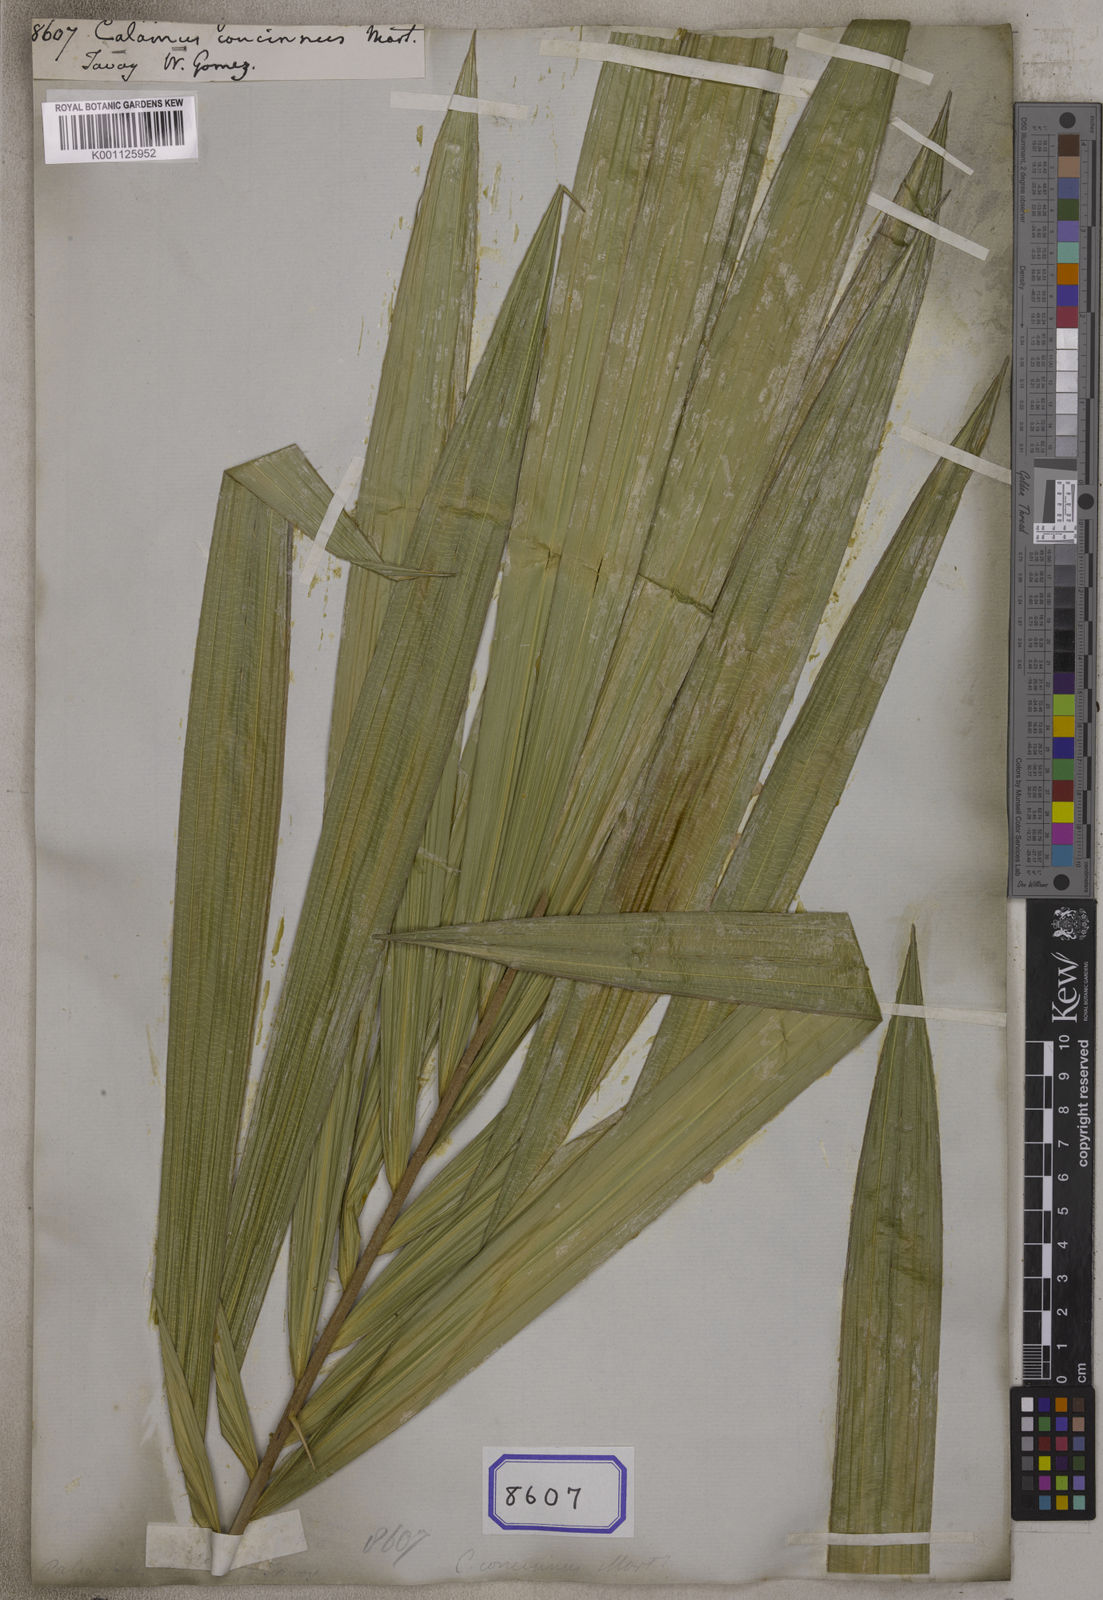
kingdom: Plantae
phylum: Tracheophyta
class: Liliopsida
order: Arecales
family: Arecaceae
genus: Calamus
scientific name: Calamus concinnus
